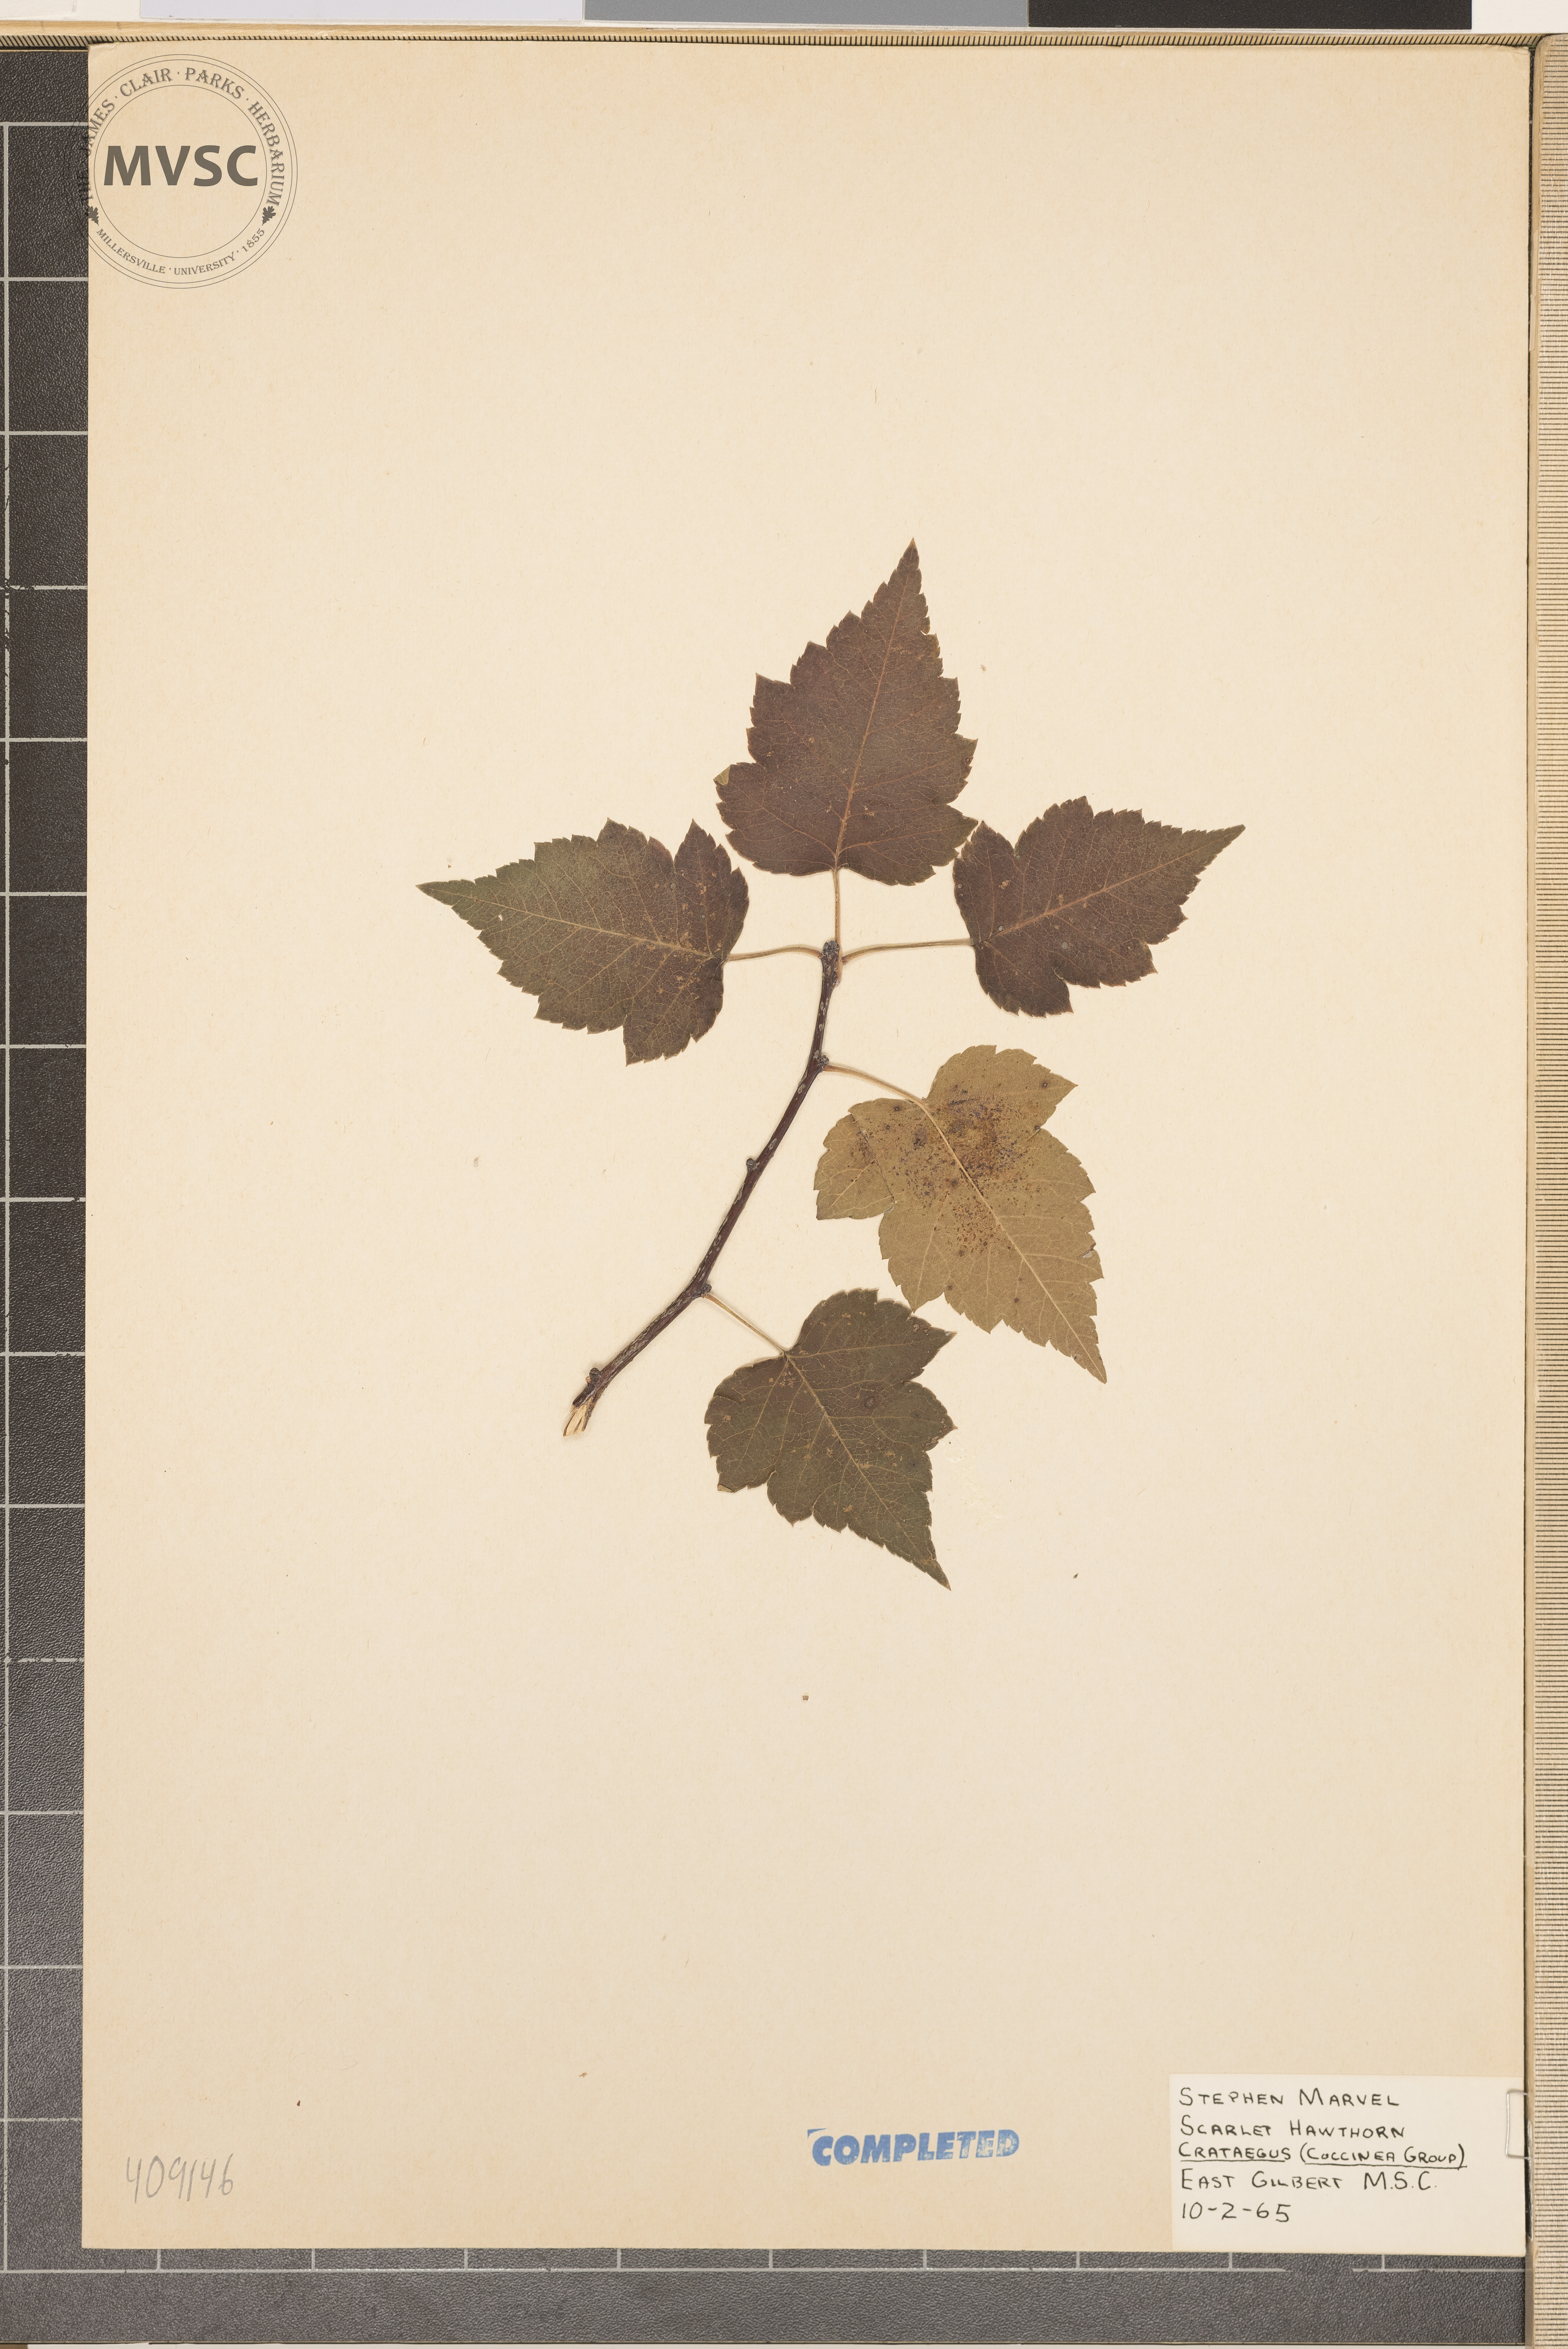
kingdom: Plantae
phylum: Tracheophyta
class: Magnoliopsida
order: Rosales
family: Rosaceae
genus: Crataegus
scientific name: Crataegus
